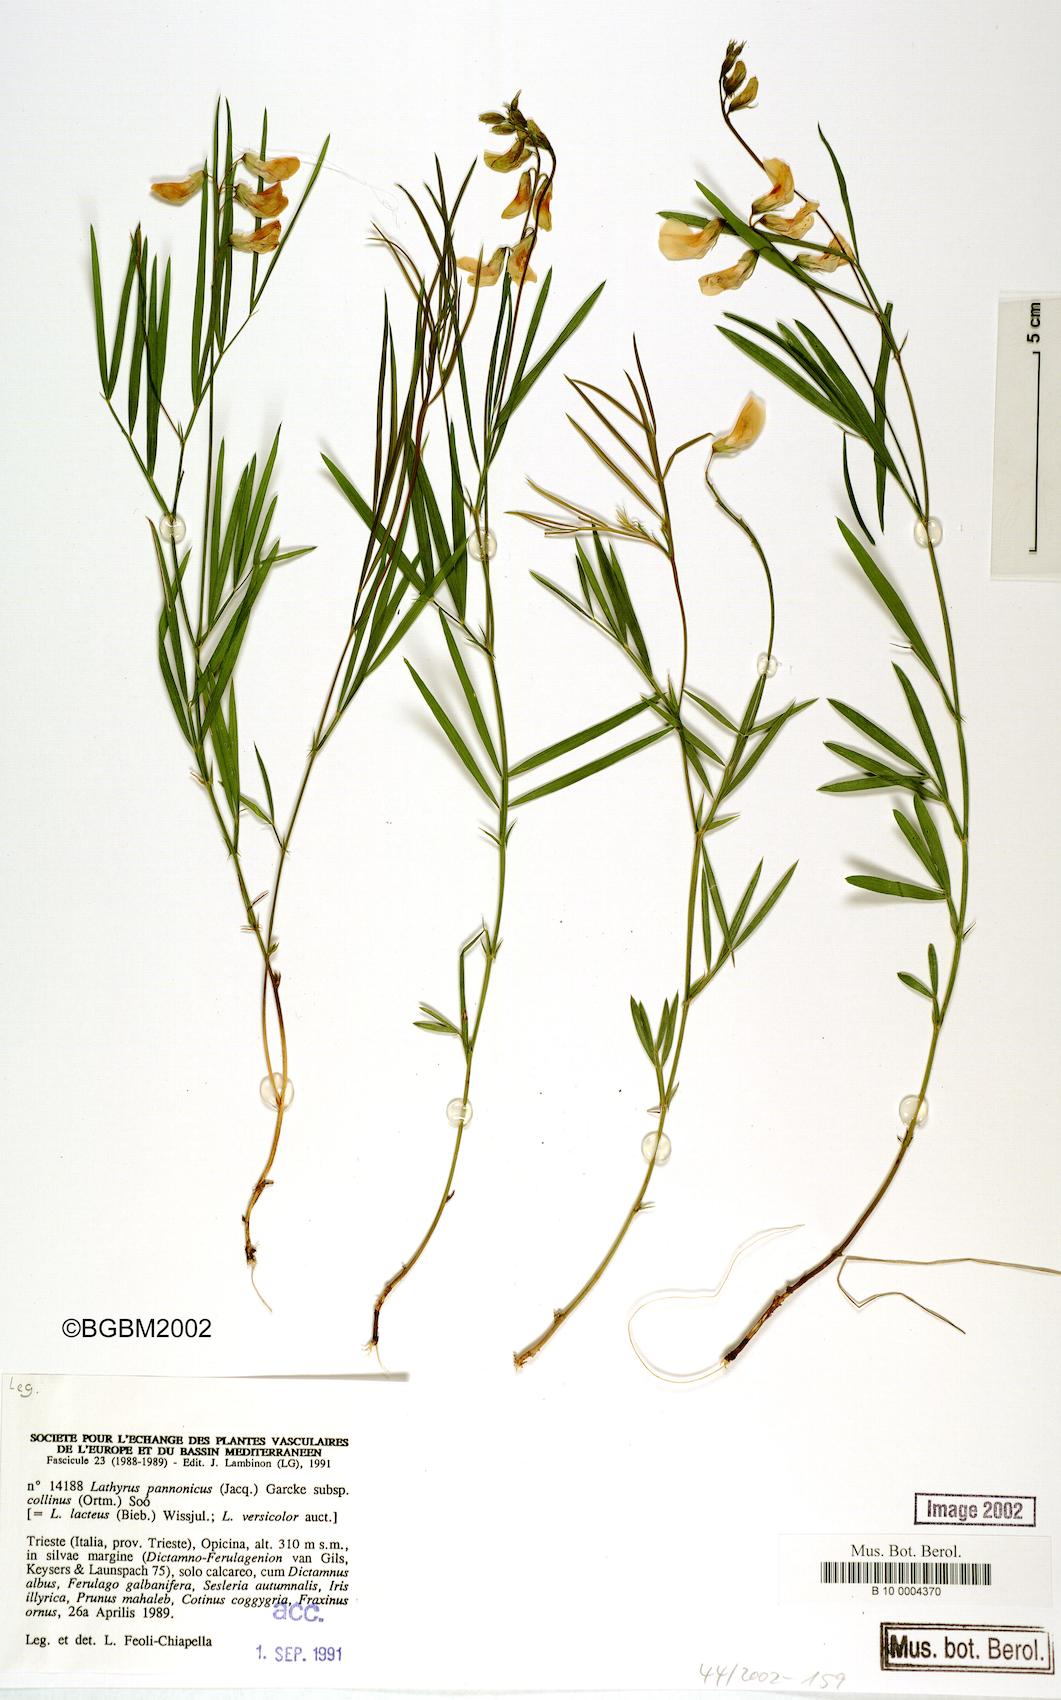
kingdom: Plantae
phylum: Tracheophyta
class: Magnoliopsida
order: Fabales
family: Fabaceae
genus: Lathyrus
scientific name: Lathyrus pannonicus
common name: Pea
